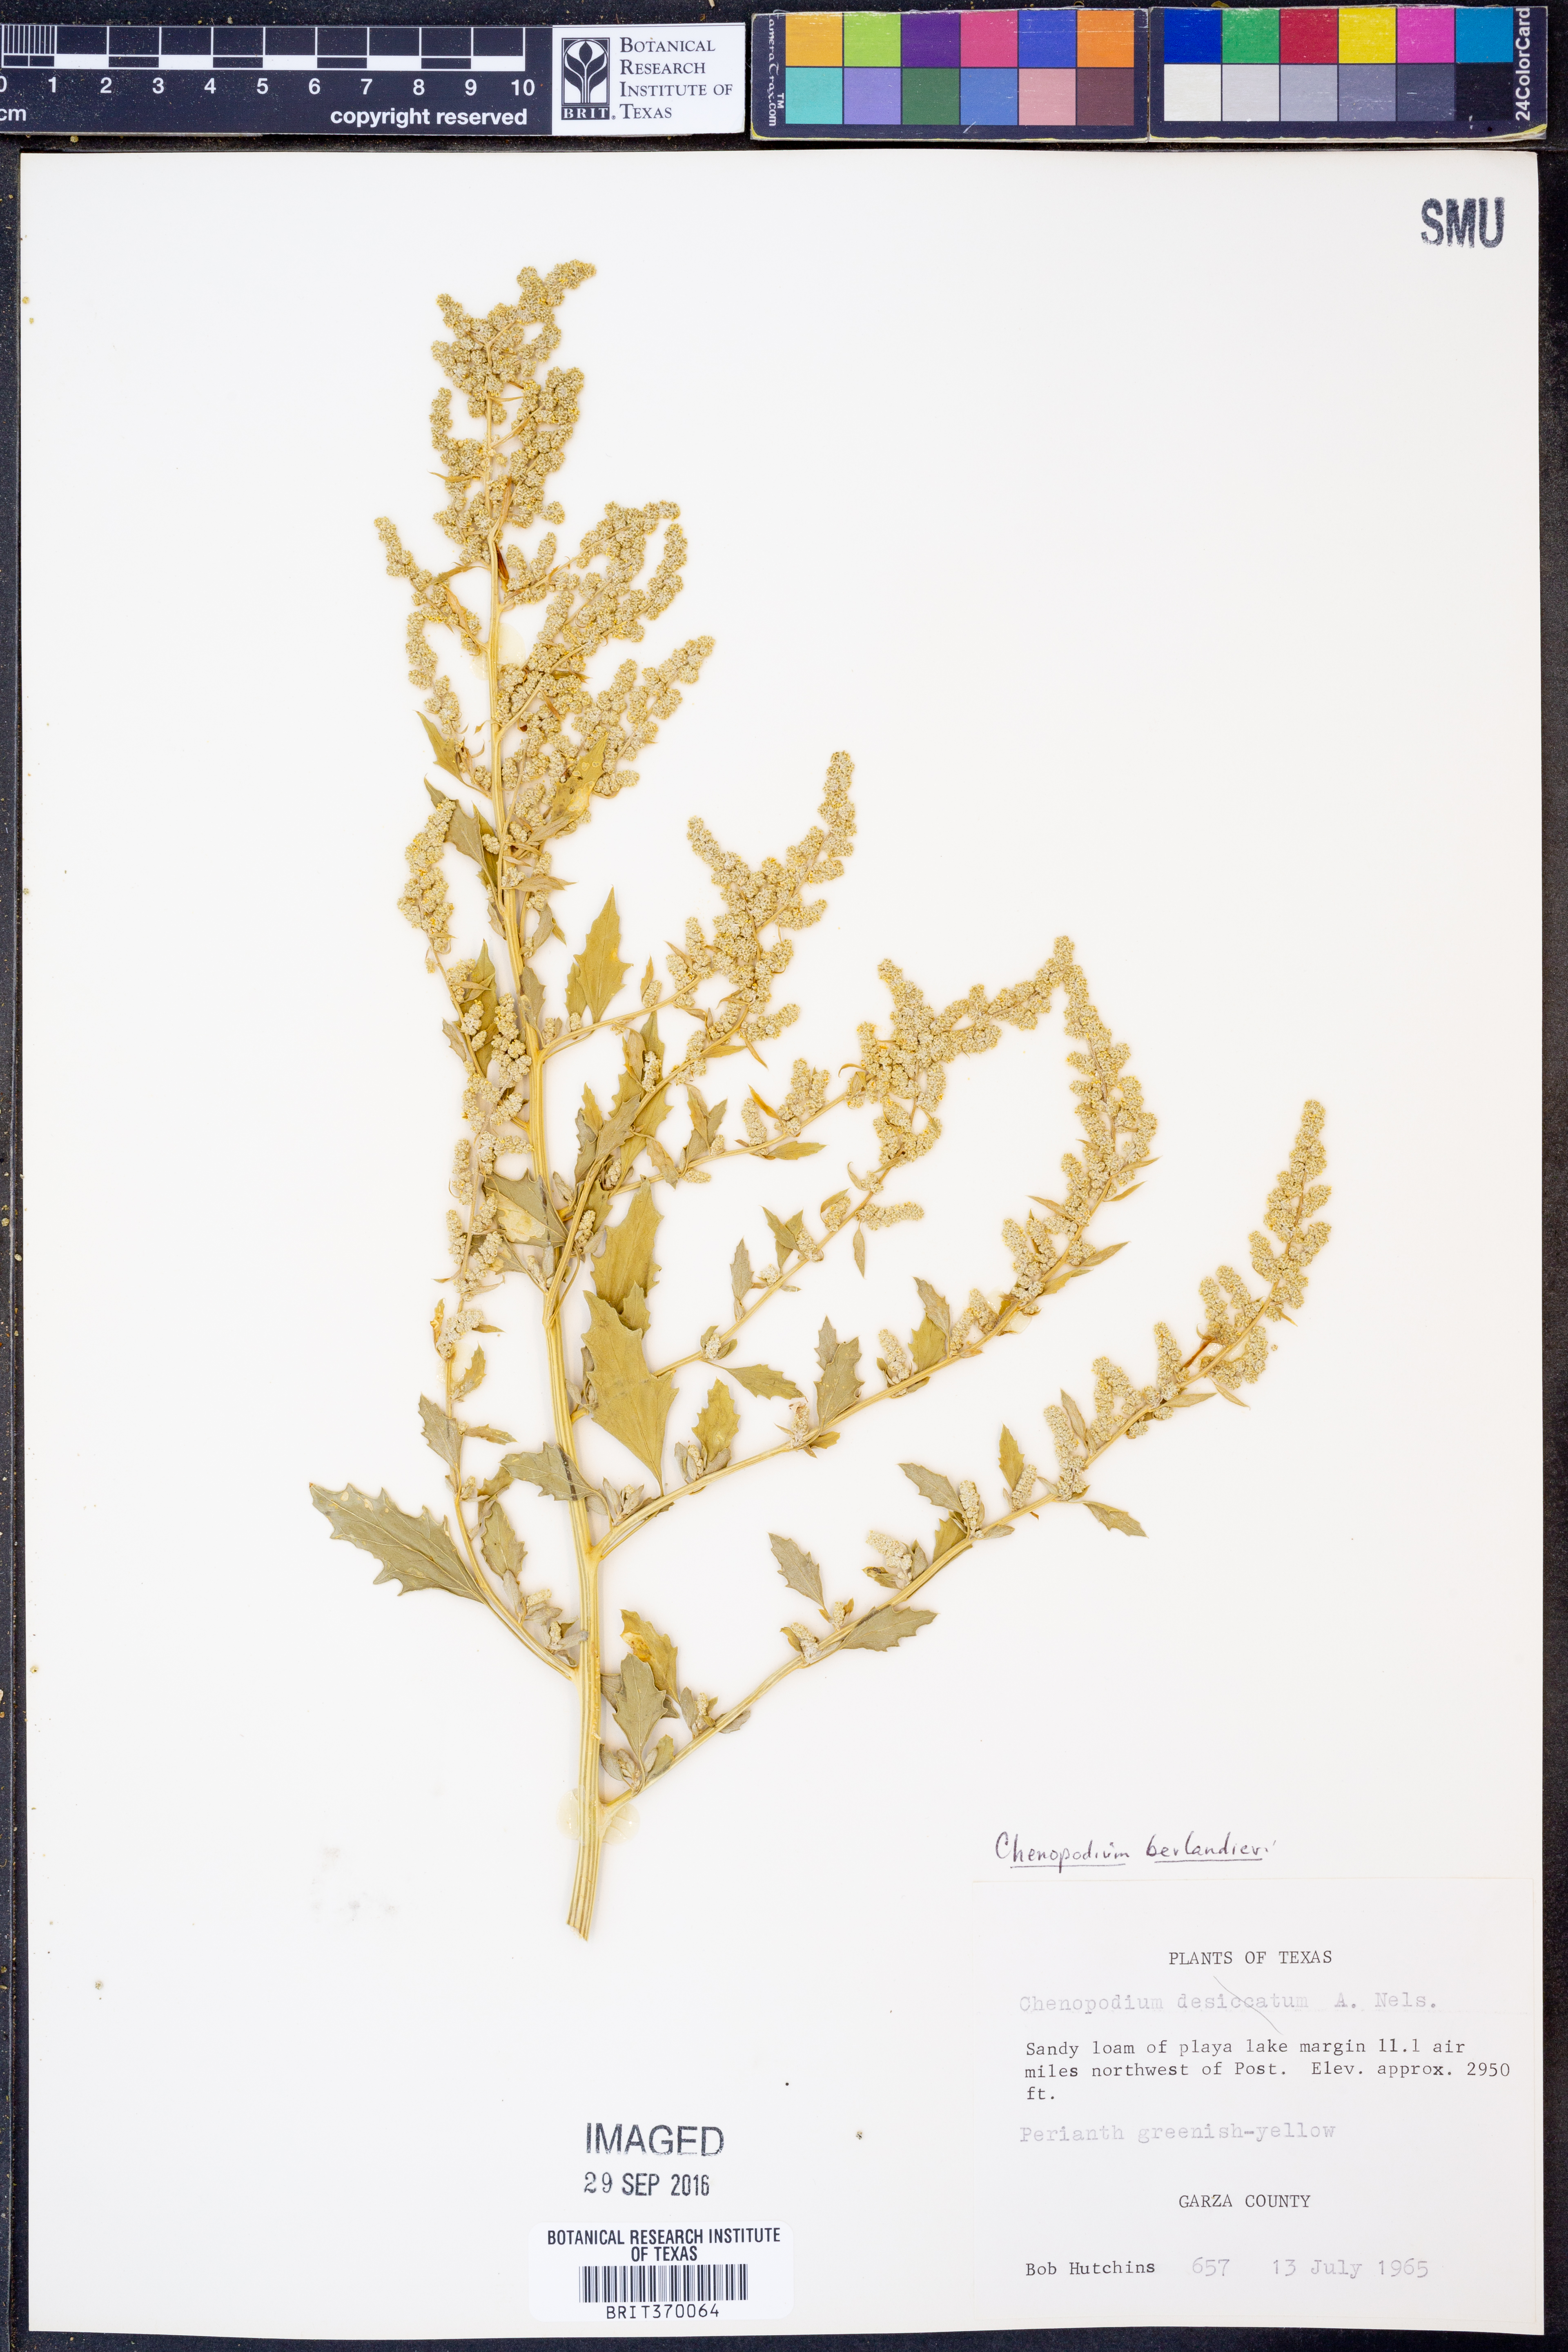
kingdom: Plantae
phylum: Tracheophyta
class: Magnoliopsida
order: Caryophyllales
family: Amaranthaceae
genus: Chenopodium
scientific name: Chenopodium berlandieri
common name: Pit-seed goosefoot
